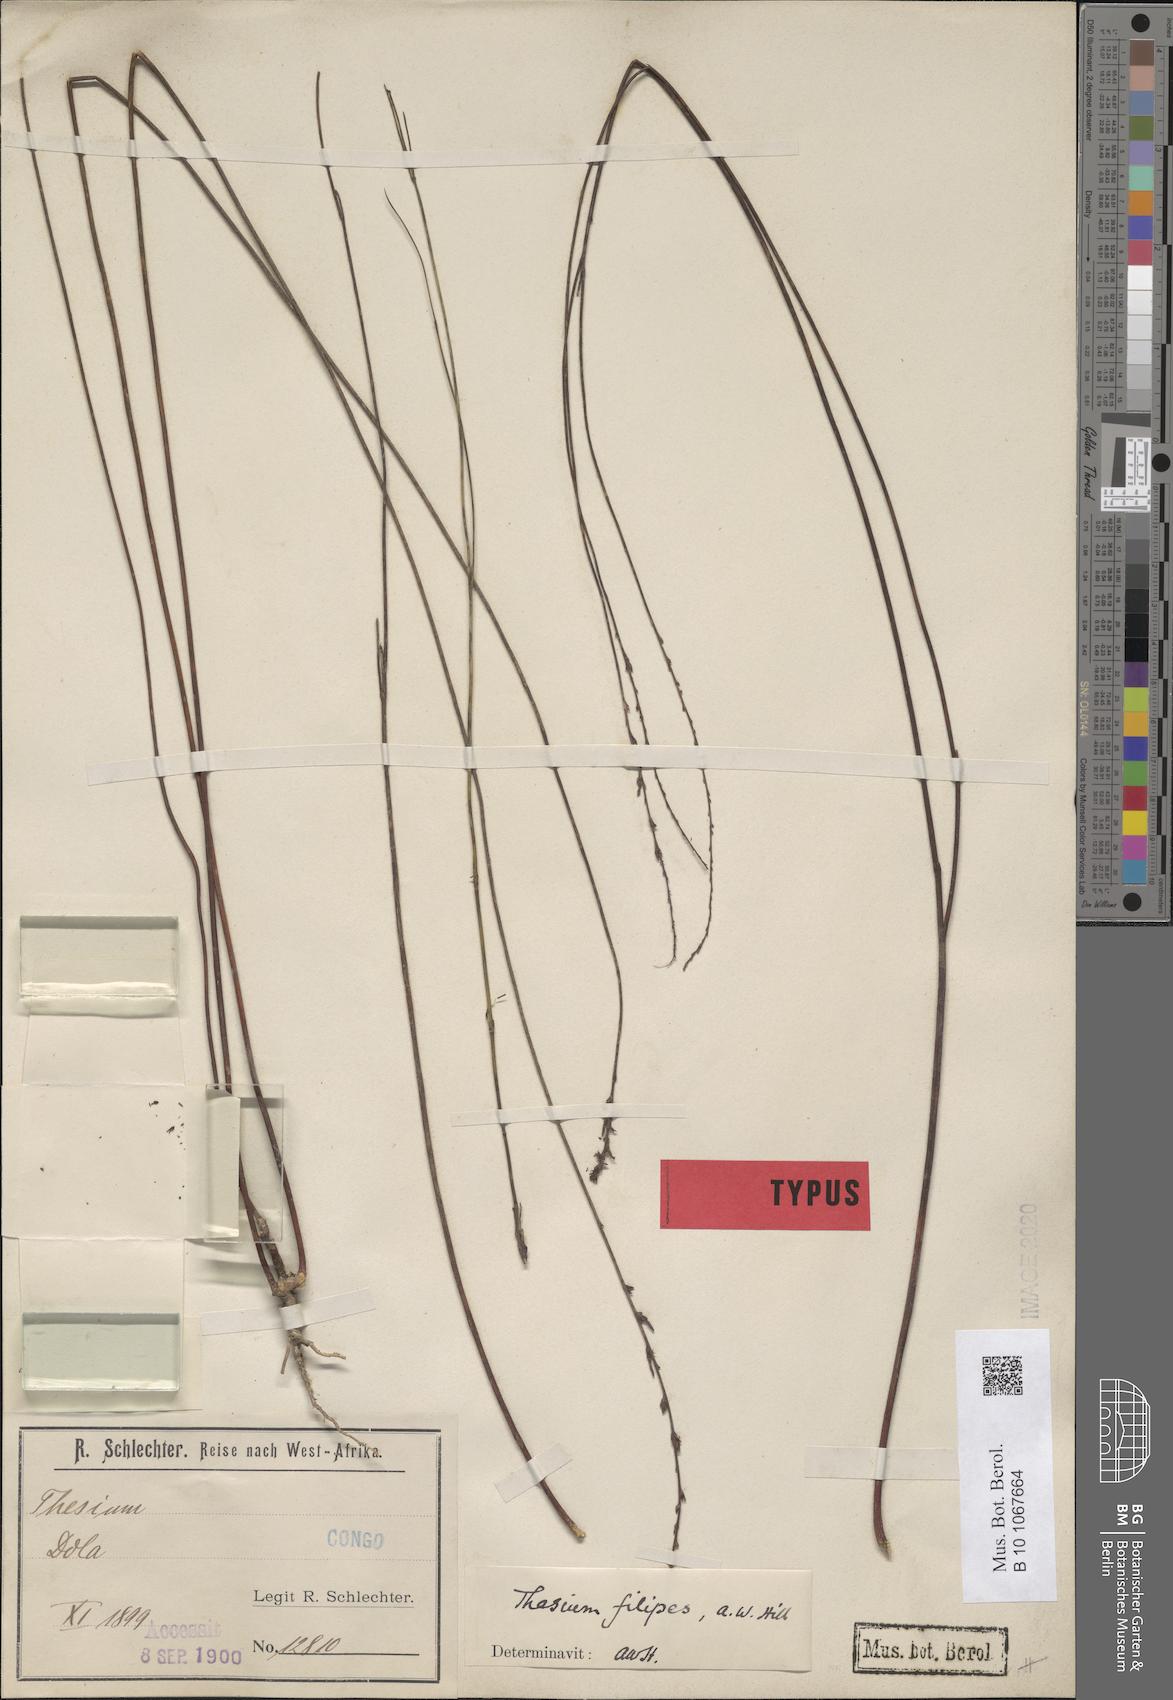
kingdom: Plantae
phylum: Tracheophyta
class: Magnoliopsida
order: Santalales
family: Thesiaceae
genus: Thesium
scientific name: Thesium filipes
